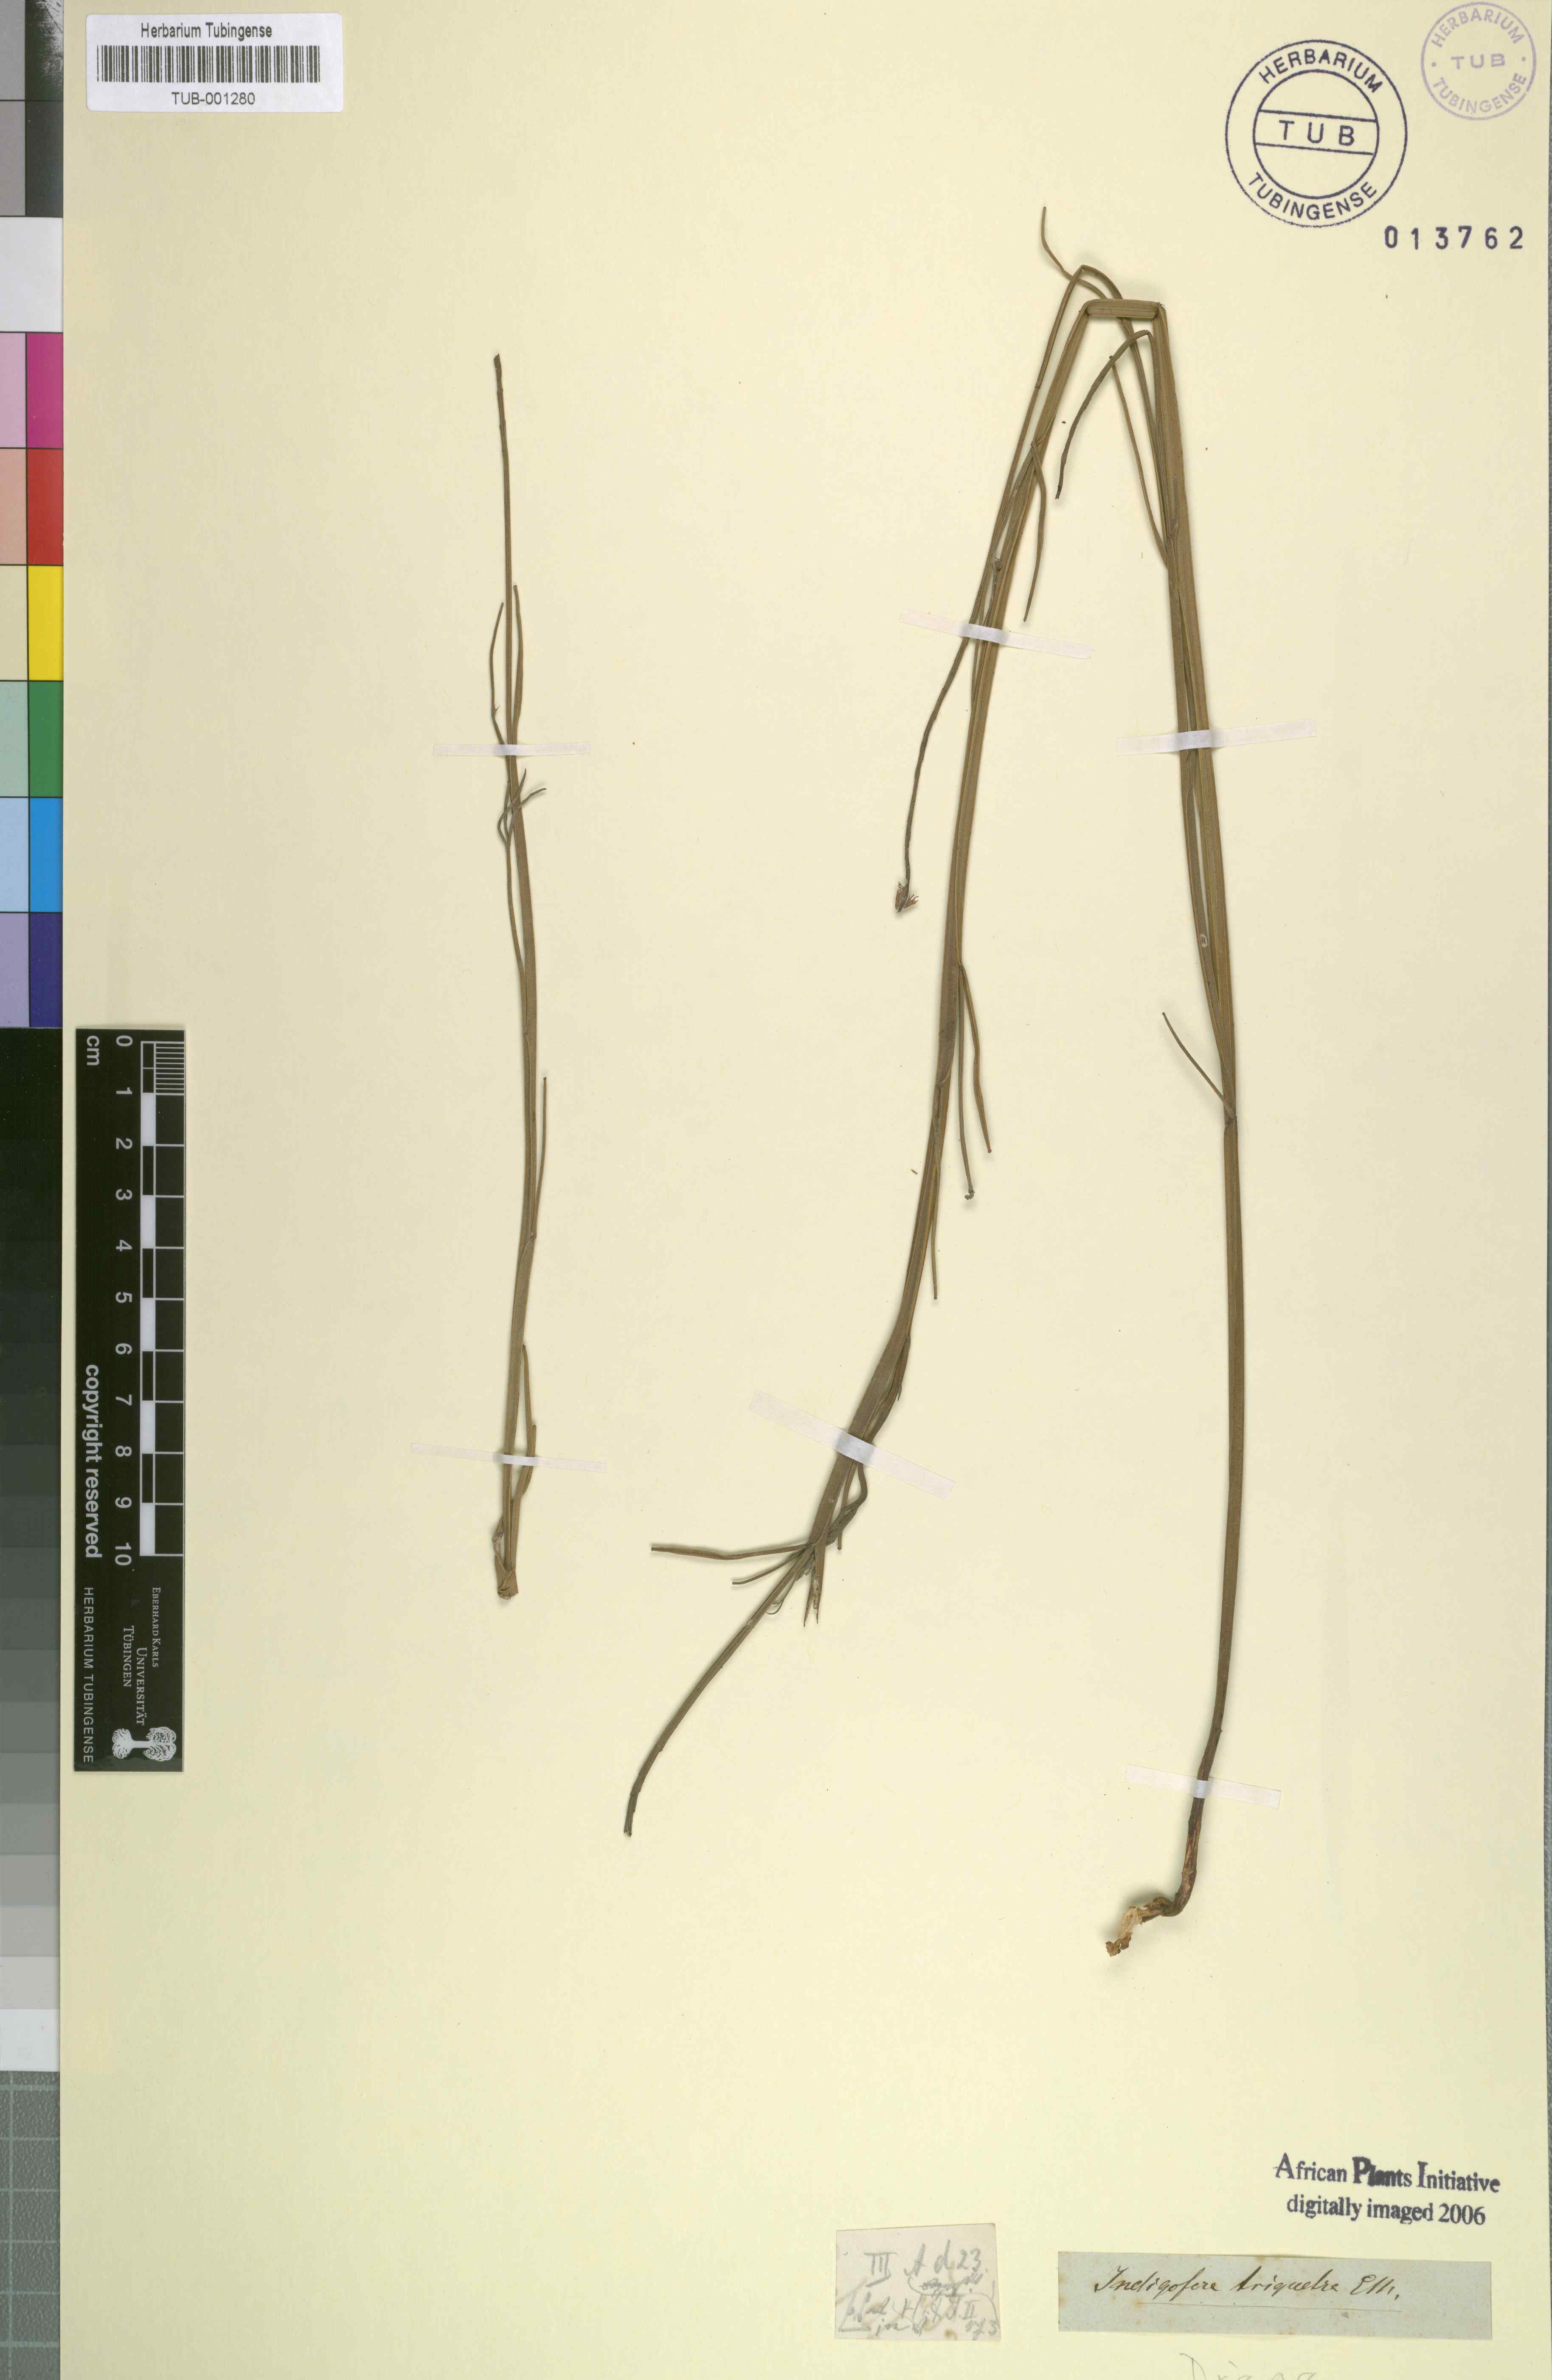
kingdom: Plantae
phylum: Tracheophyta
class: Magnoliopsida
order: Fabales
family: Fabaceae
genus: Indigofera
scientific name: Indigofera triquetra
